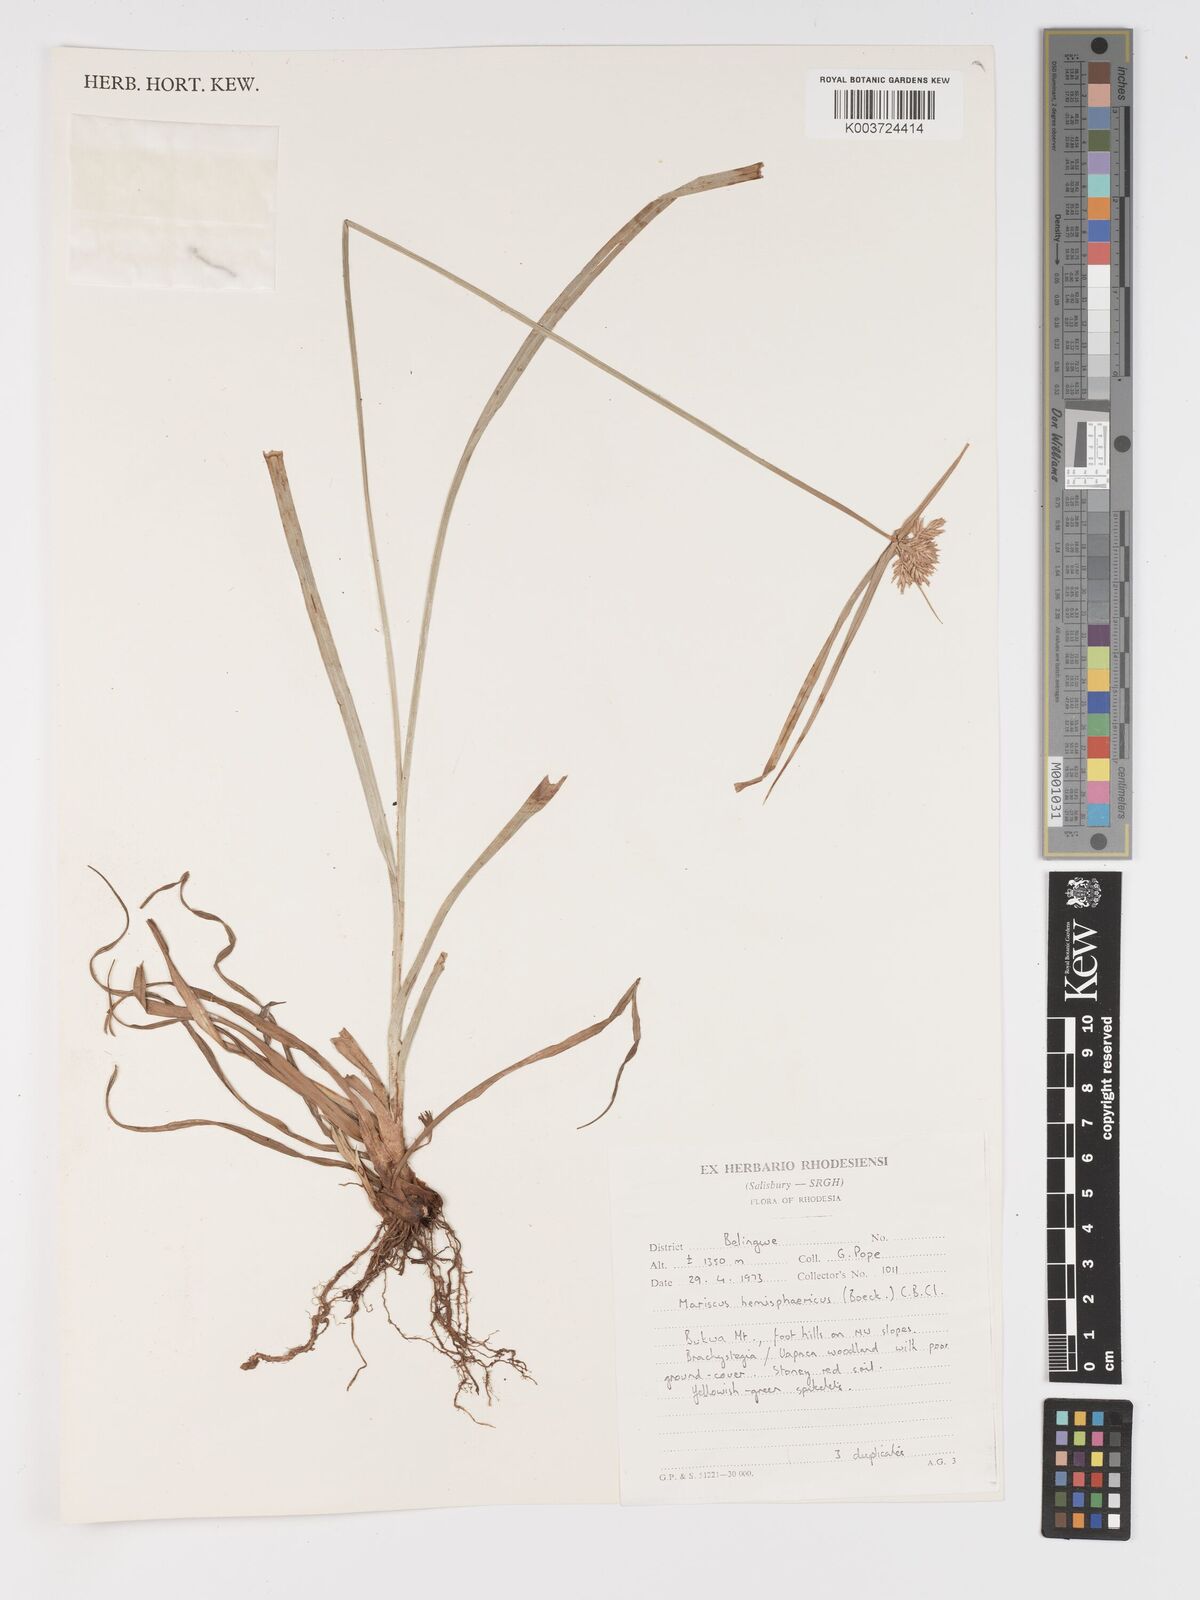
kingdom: Plantae
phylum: Tracheophyta
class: Liliopsida
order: Poales
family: Cyperaceae
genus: Cyperus
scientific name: Cyperus hemisphaericus
